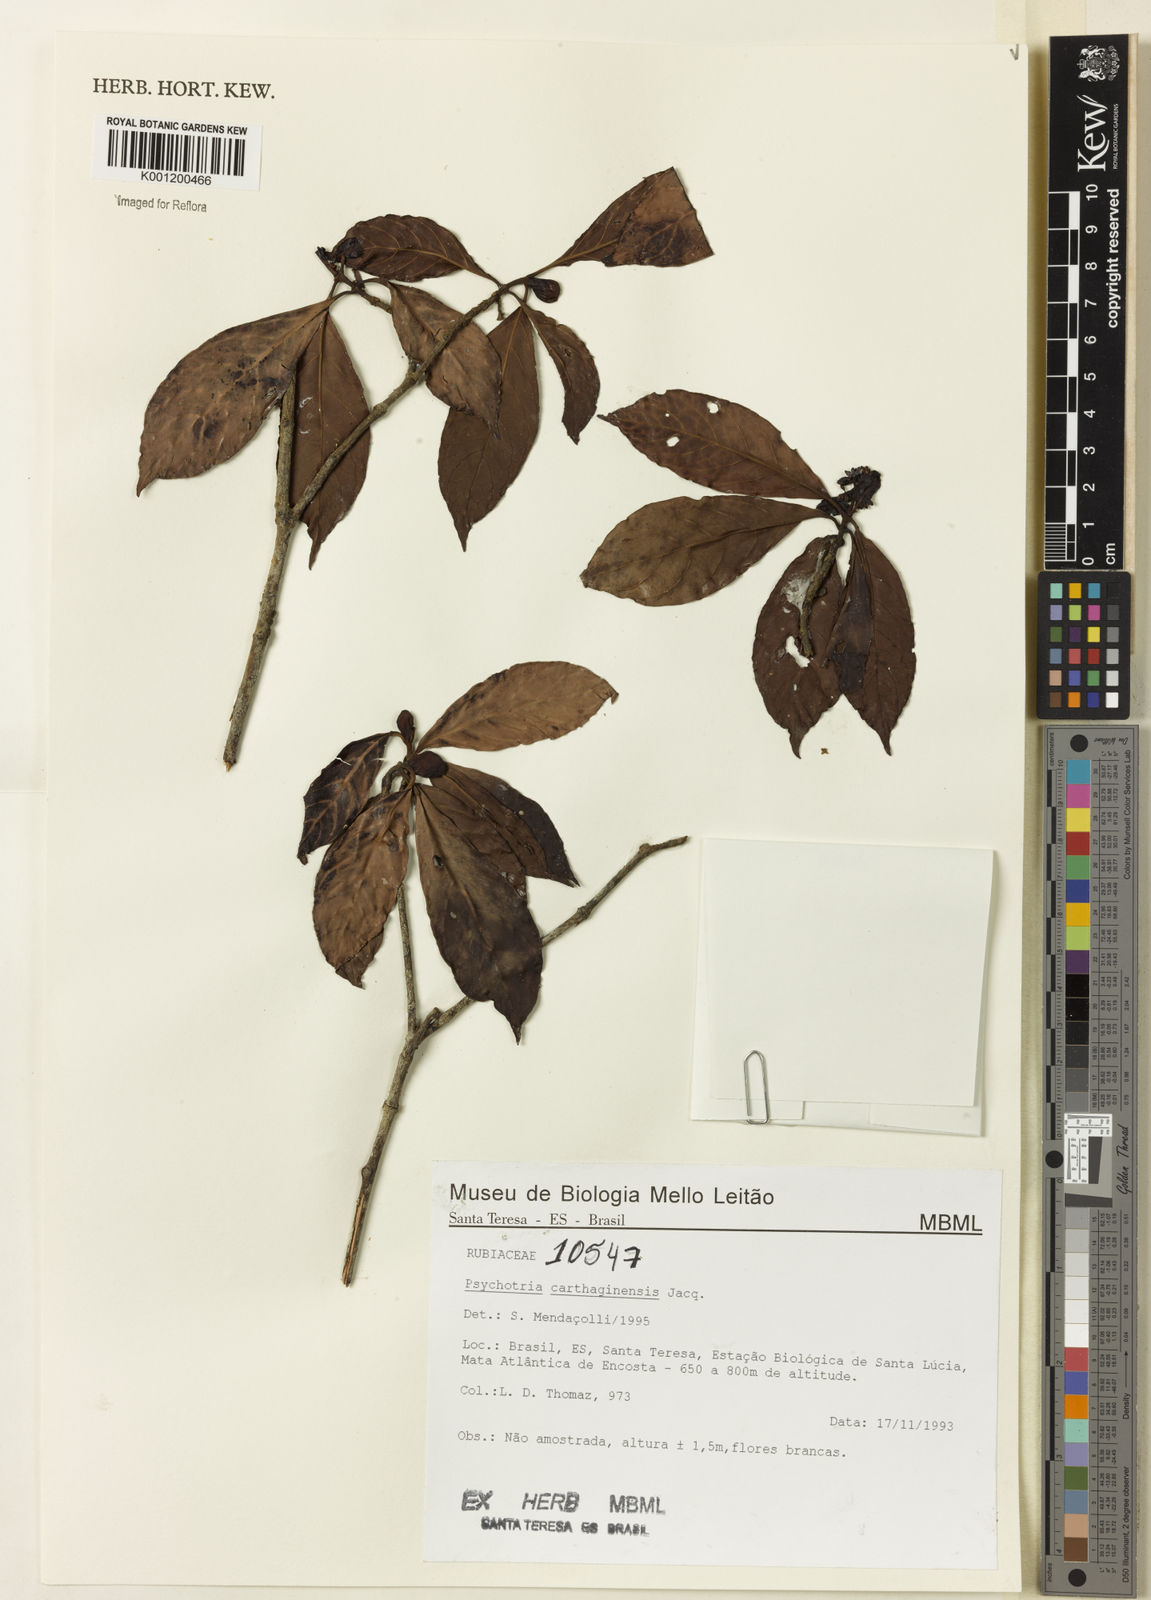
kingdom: Plantae
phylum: Tracheophyta
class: Magnoliopsida
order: Gentianales
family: Rubiaceae
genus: Psychotria
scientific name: Psychotria carthagenensis
